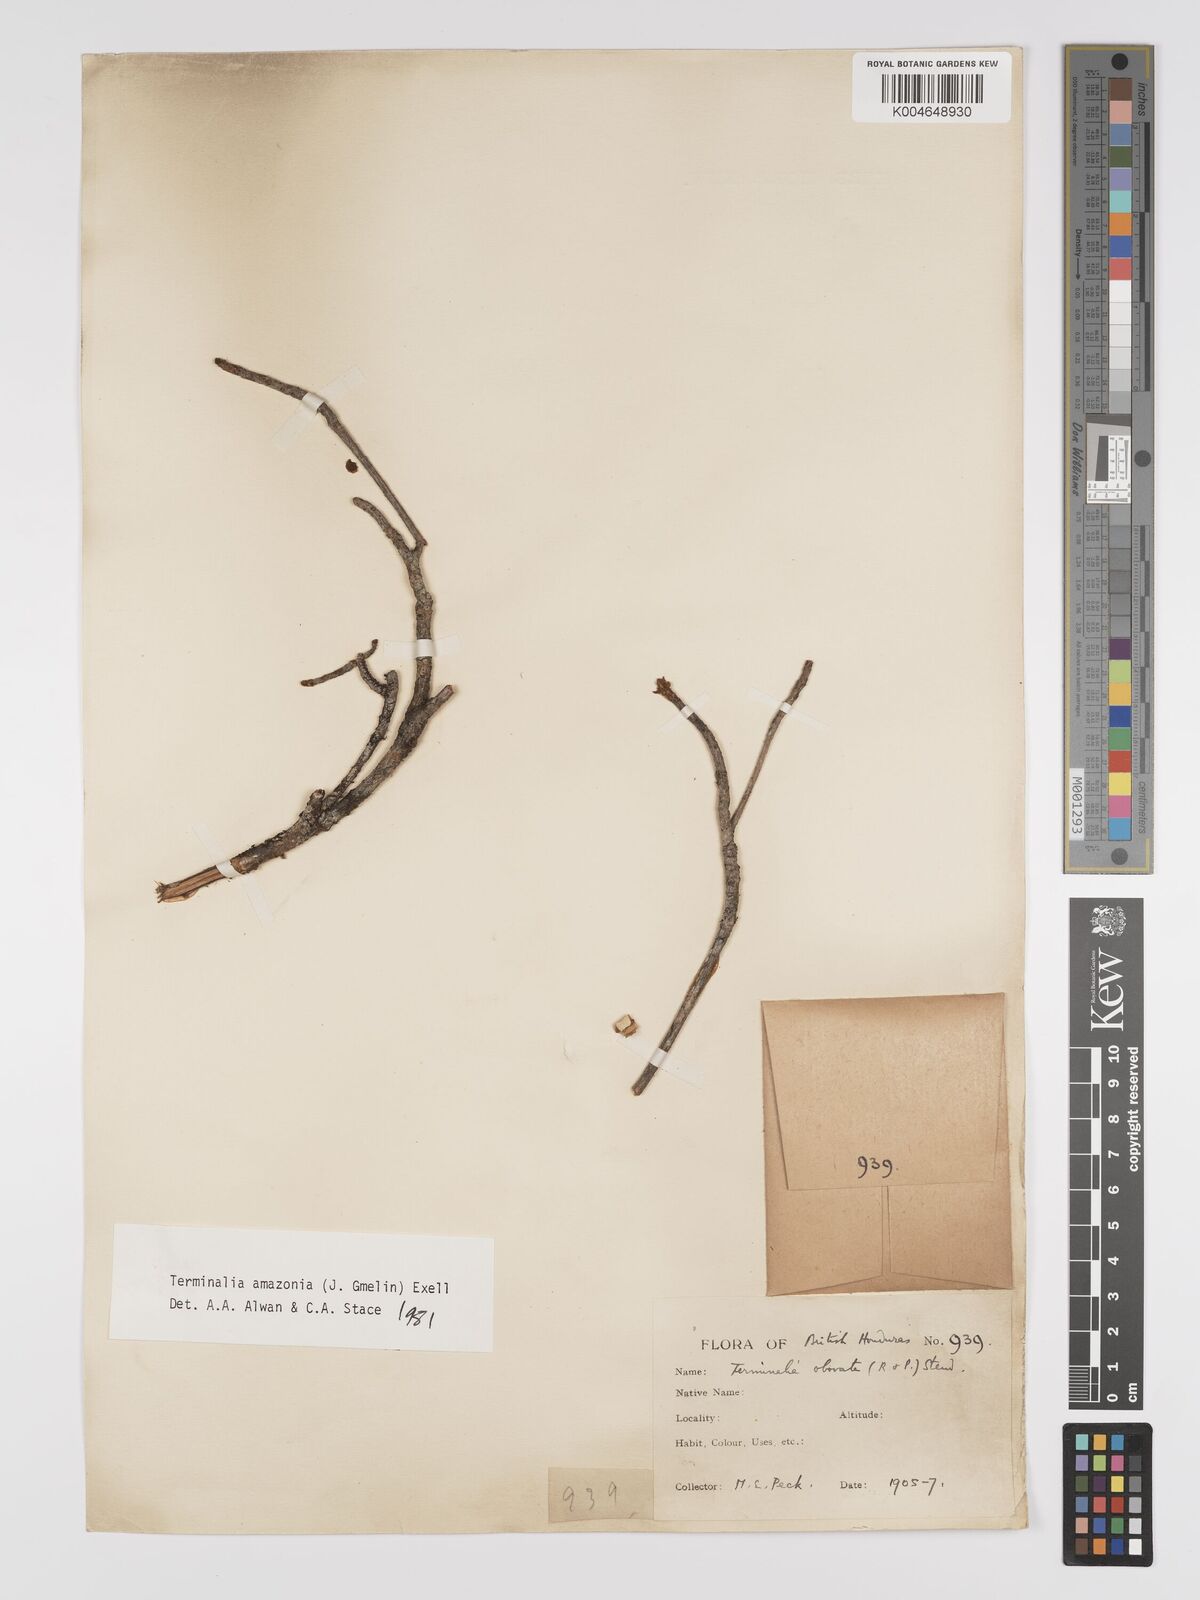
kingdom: Plantae
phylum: Tracheophyta
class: Magnoliopsida
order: Myrtales
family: Combretaceae
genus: Terminalia
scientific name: Terminalia amazonica
